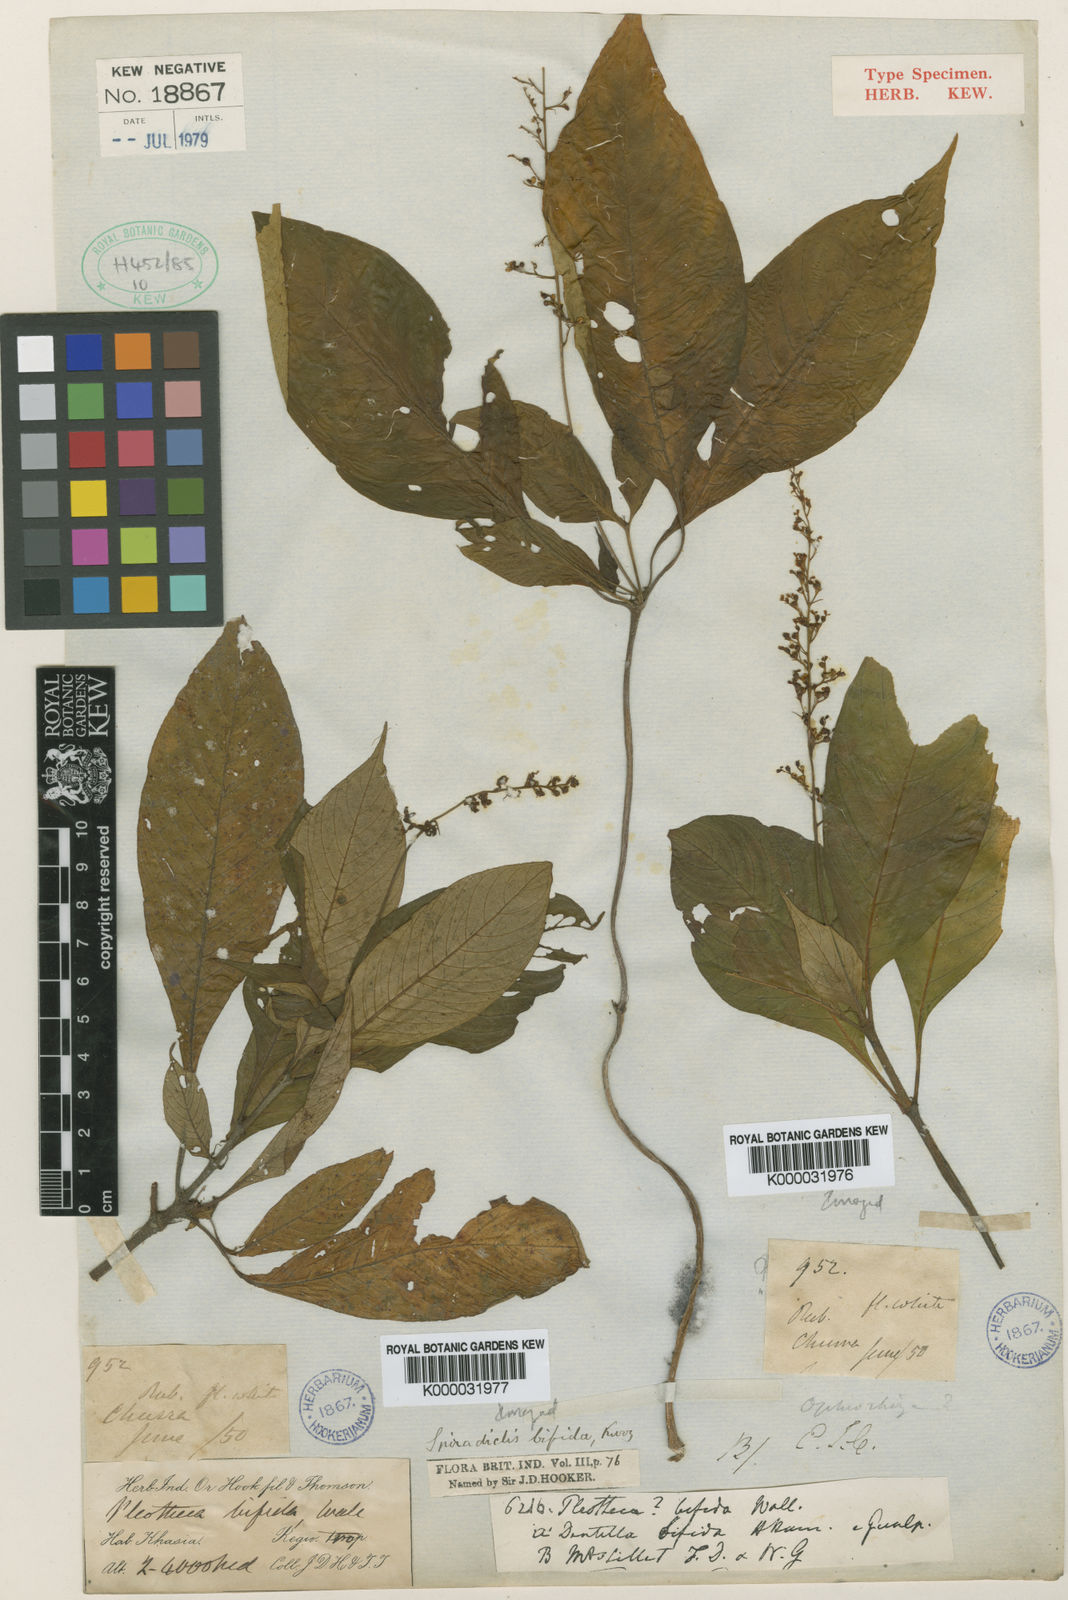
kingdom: Plantae
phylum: Tracheophyta
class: Magnoliopsida
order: Gentianales
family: Rubiaceae
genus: Ophiorrhiza
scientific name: Ophiorrhiza
